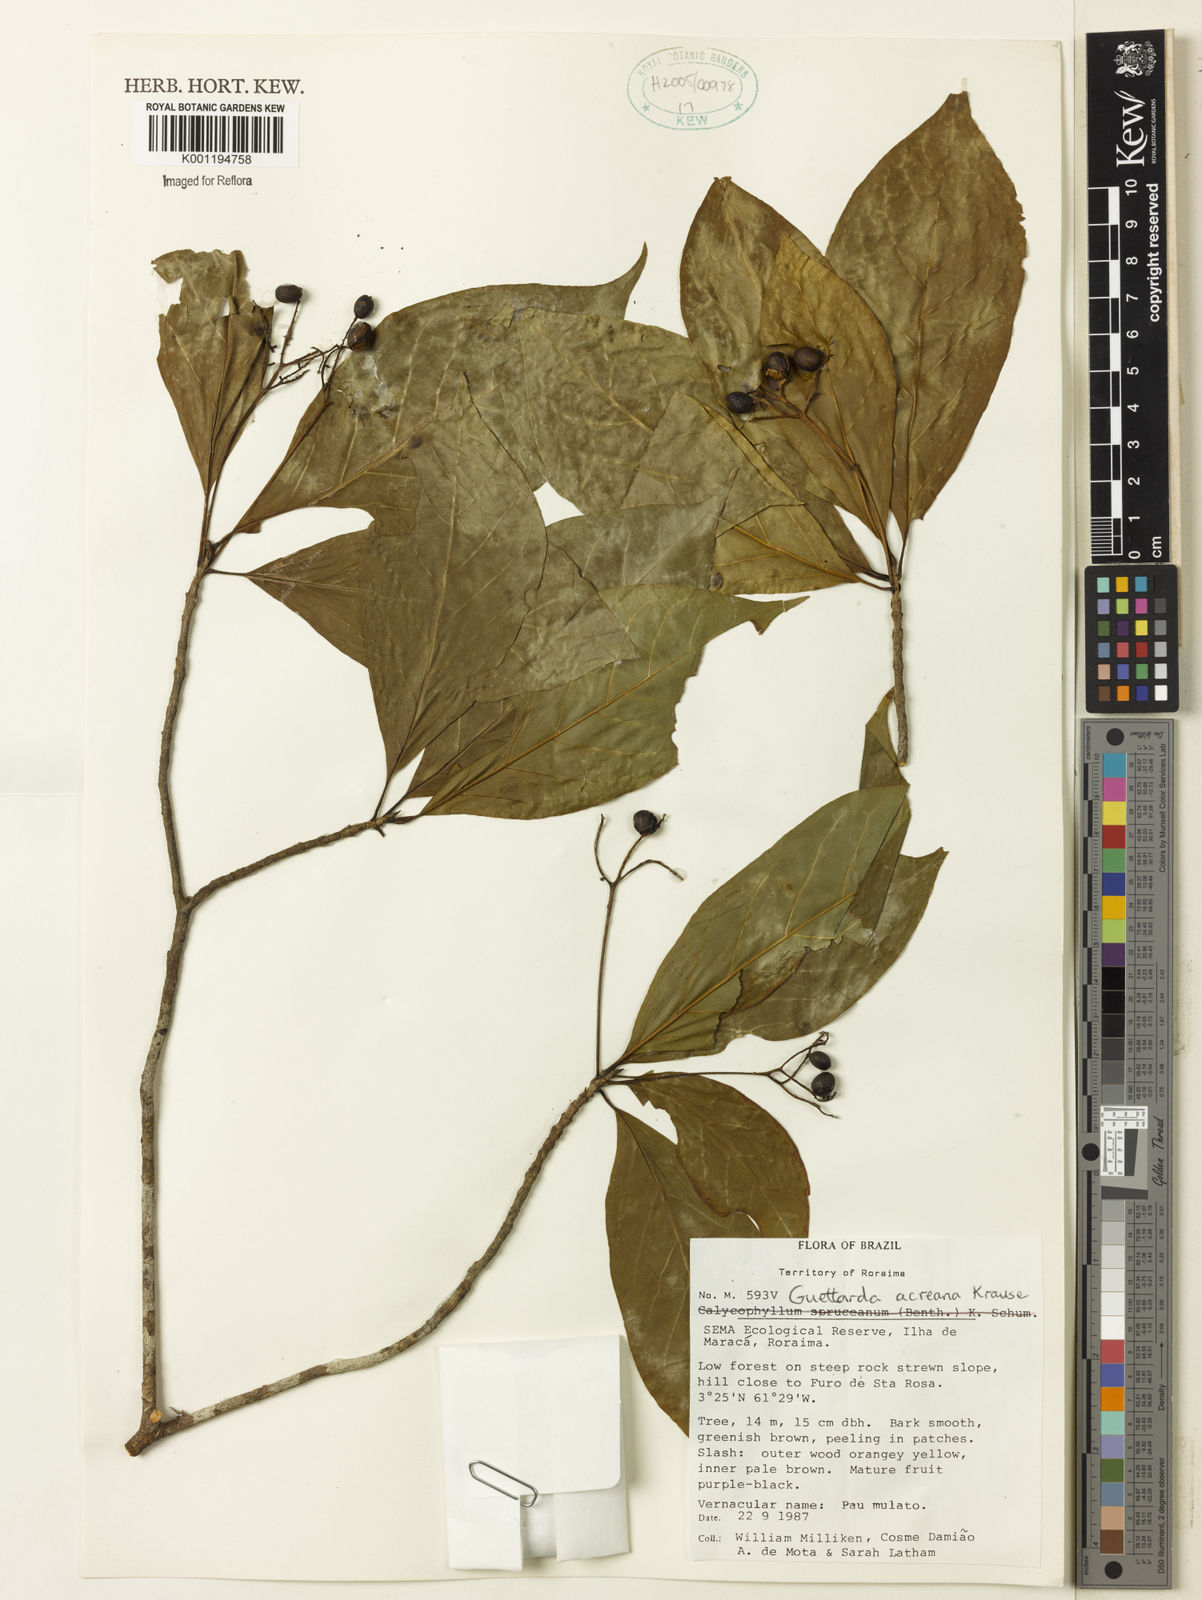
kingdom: Plantae
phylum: Tracheophyta
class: Magnoliopsida
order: Gentianales
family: Rubiaceae
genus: Stenostomum
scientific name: Stenostomum acreanum
